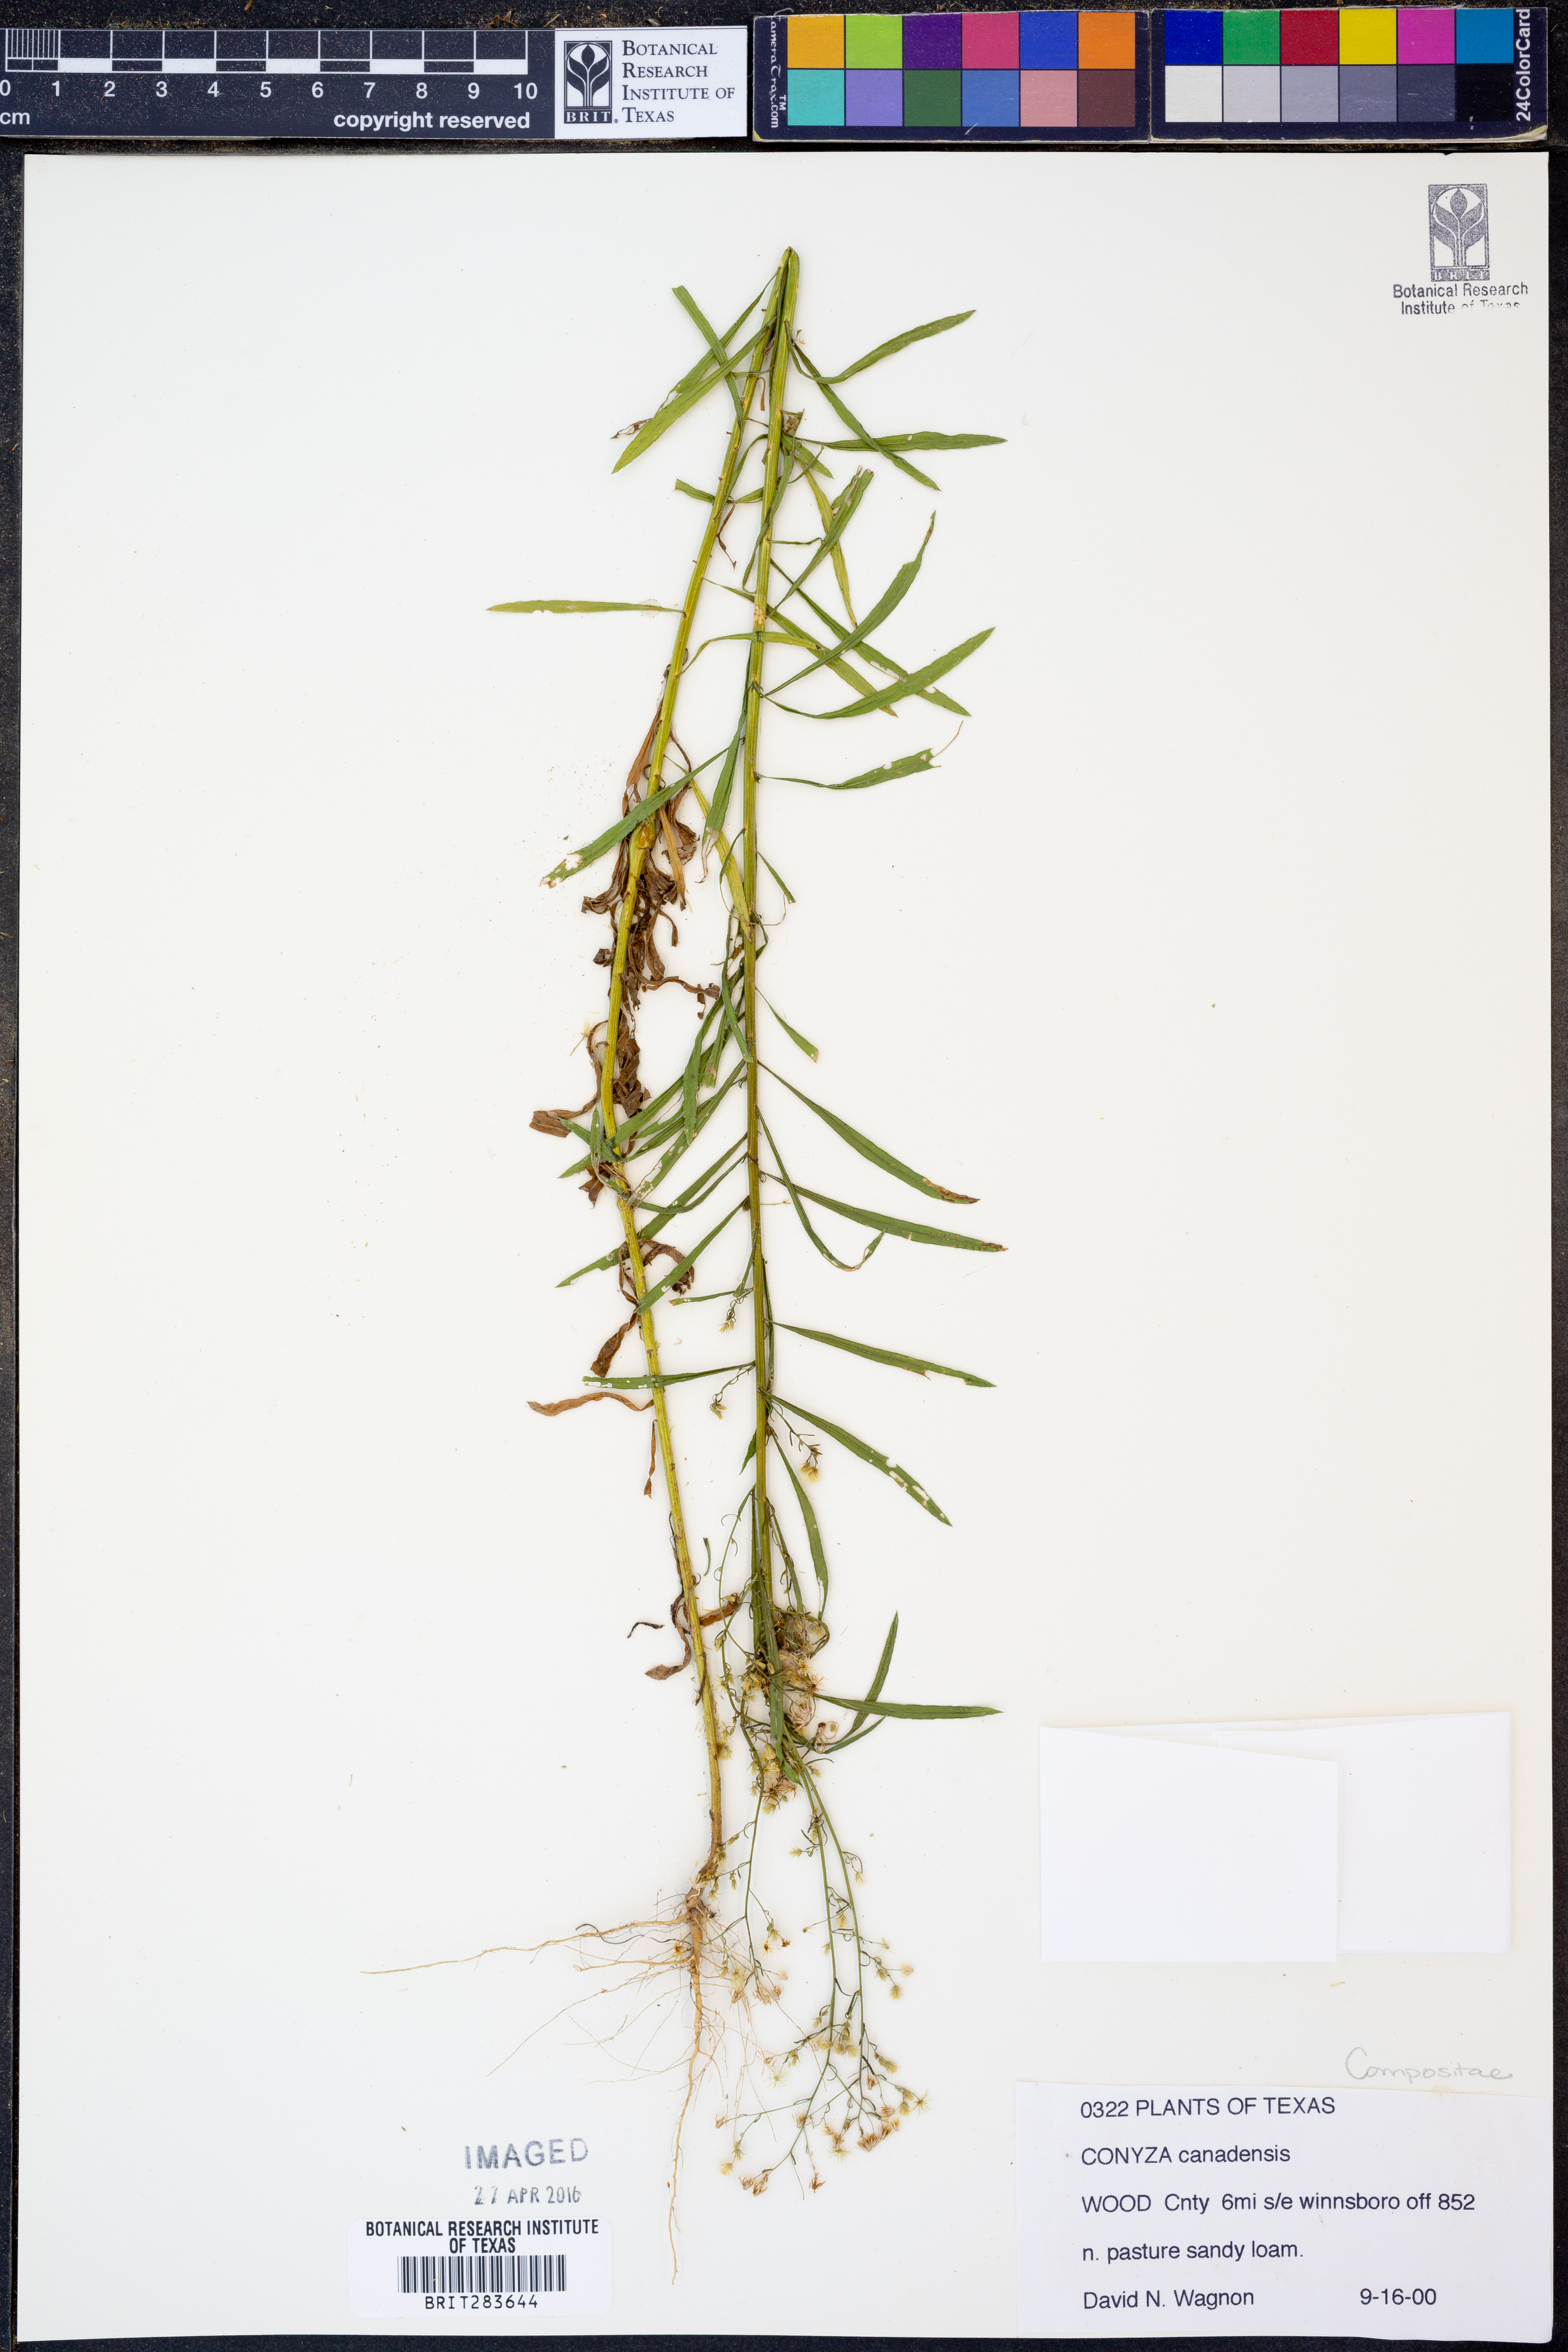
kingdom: Plantae
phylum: Tracheophyta
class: Magnoliopsida
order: Asterales
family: Asteraceae
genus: Erigeron
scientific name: Erigeron canadensis
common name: Canadian fleabane
